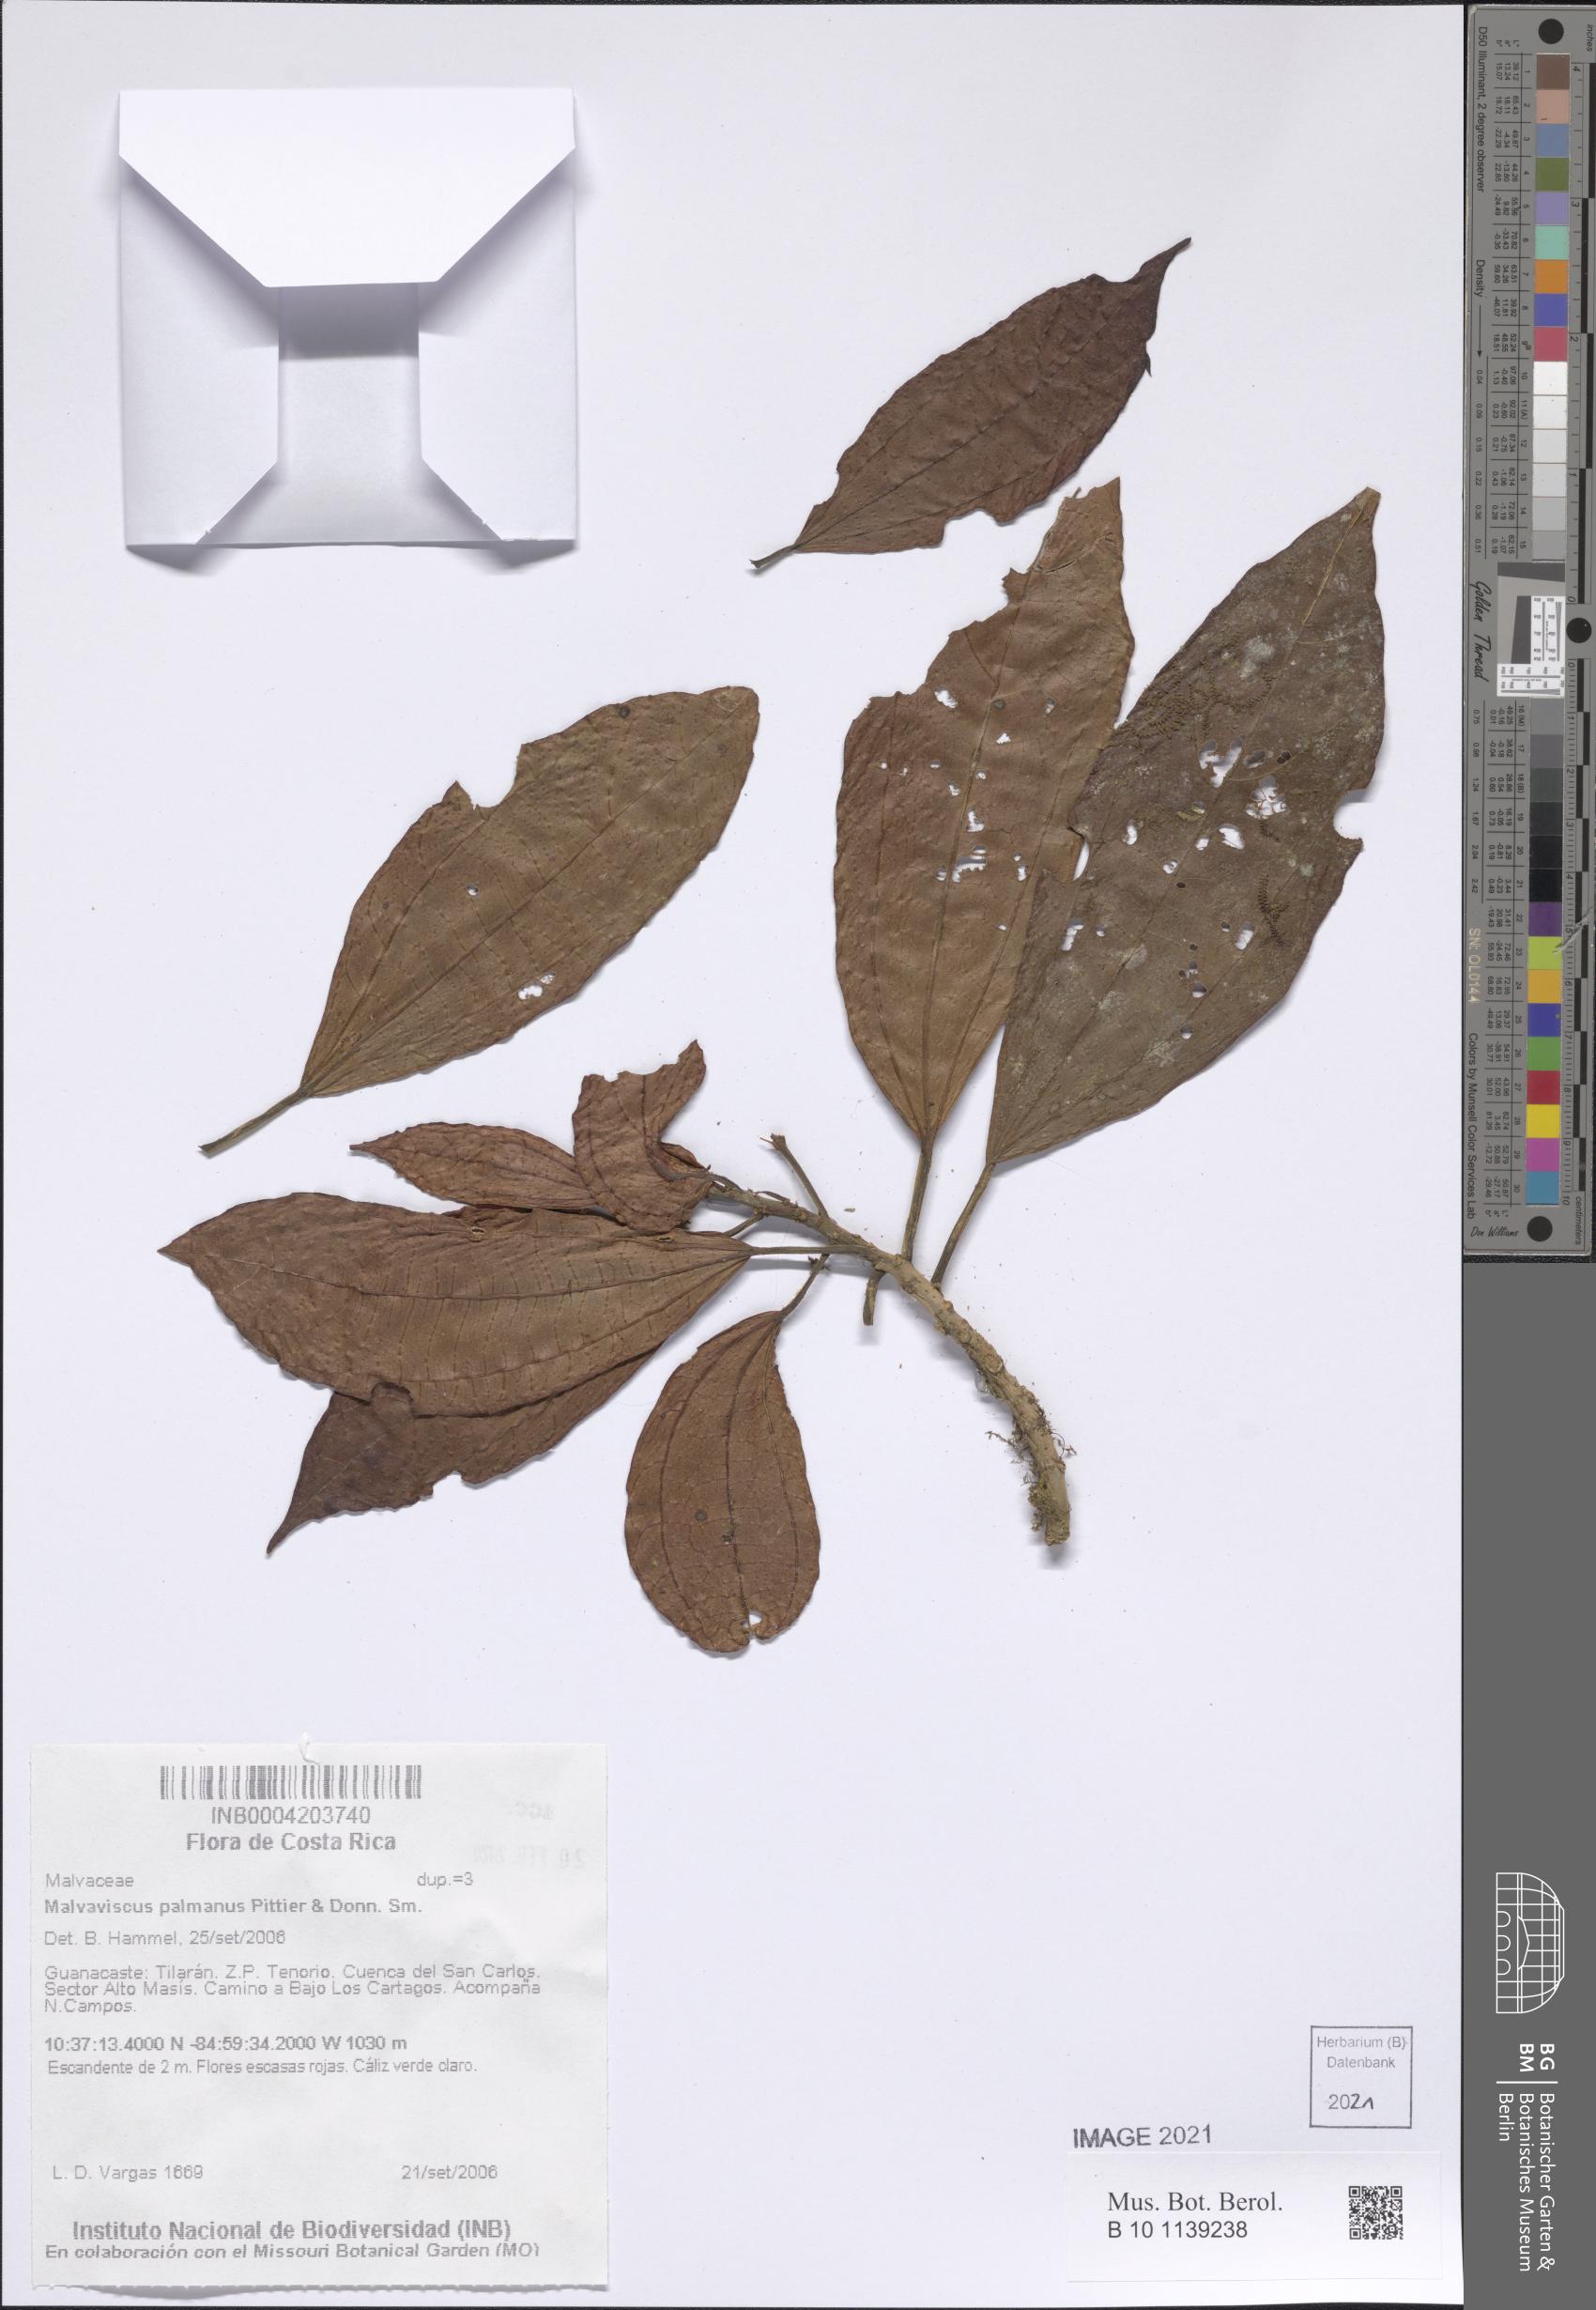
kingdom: Plantae
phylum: Tracheophyta
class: Magnoliopsida
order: Malvales
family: Malvaceae
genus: Malvaviscus
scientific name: Malvaviscus palmanus
